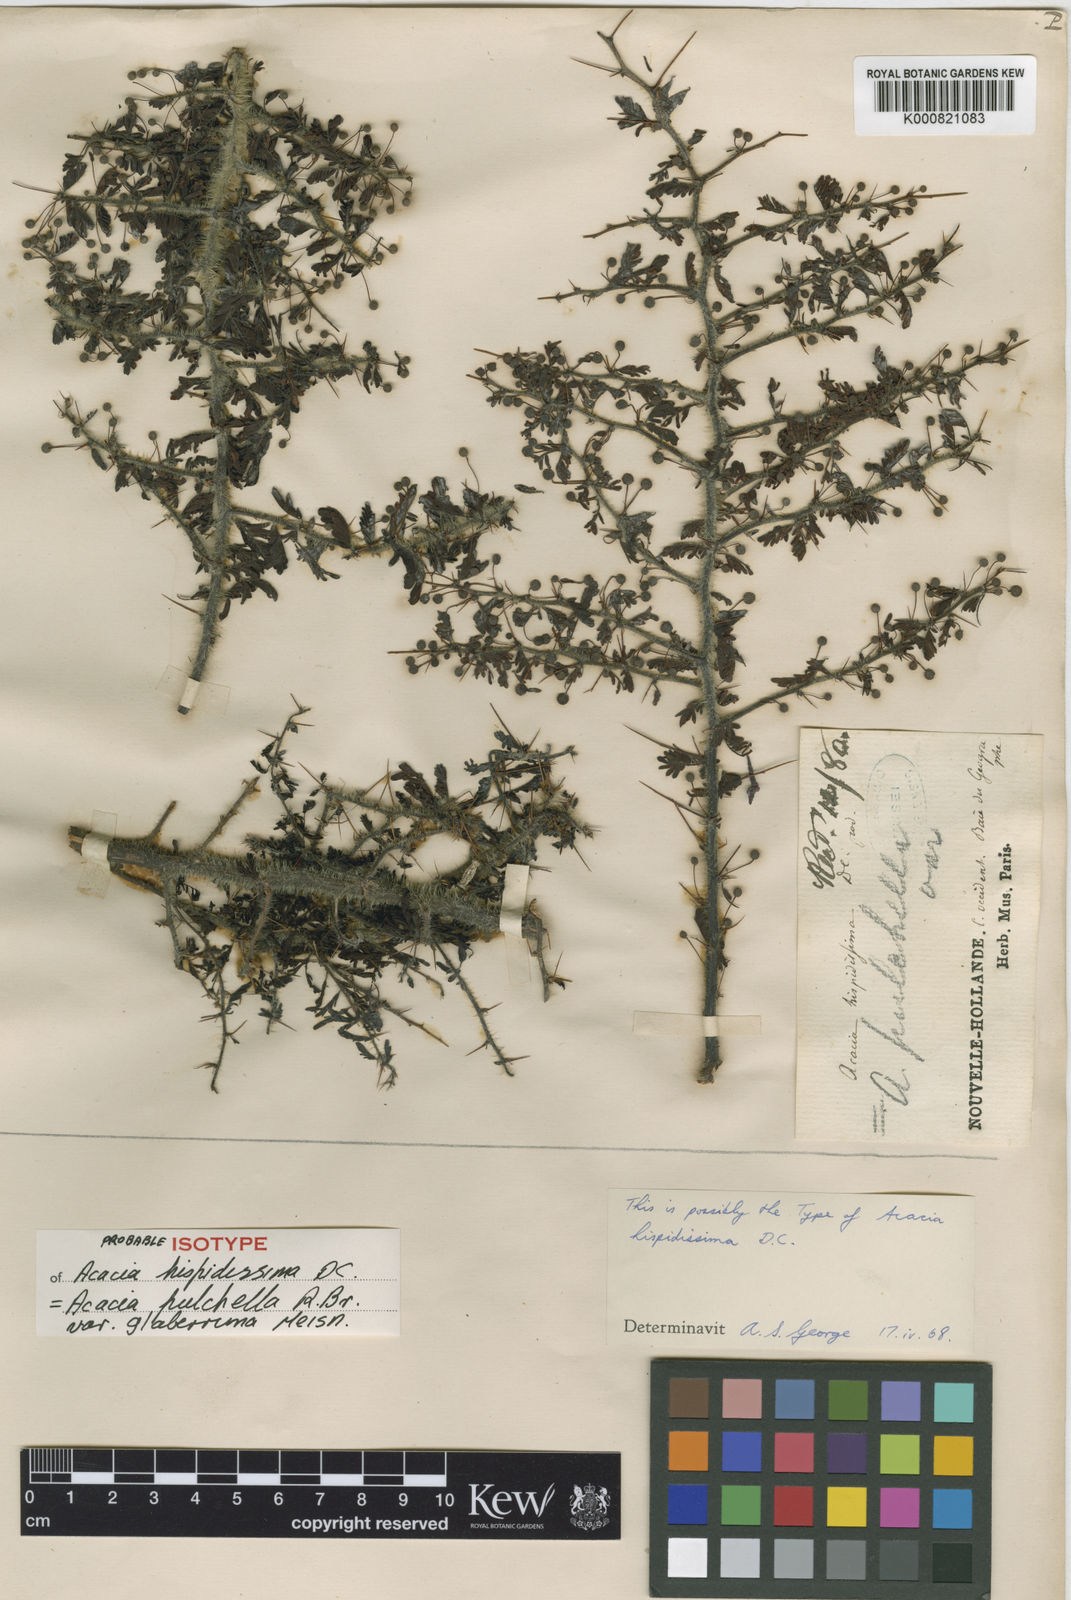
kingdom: Plantae
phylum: Tracheophyta
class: Magnoliopsida
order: Fabales
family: Fabaceae
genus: Acacia
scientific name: Acacia pulchella
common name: Prickly moses
